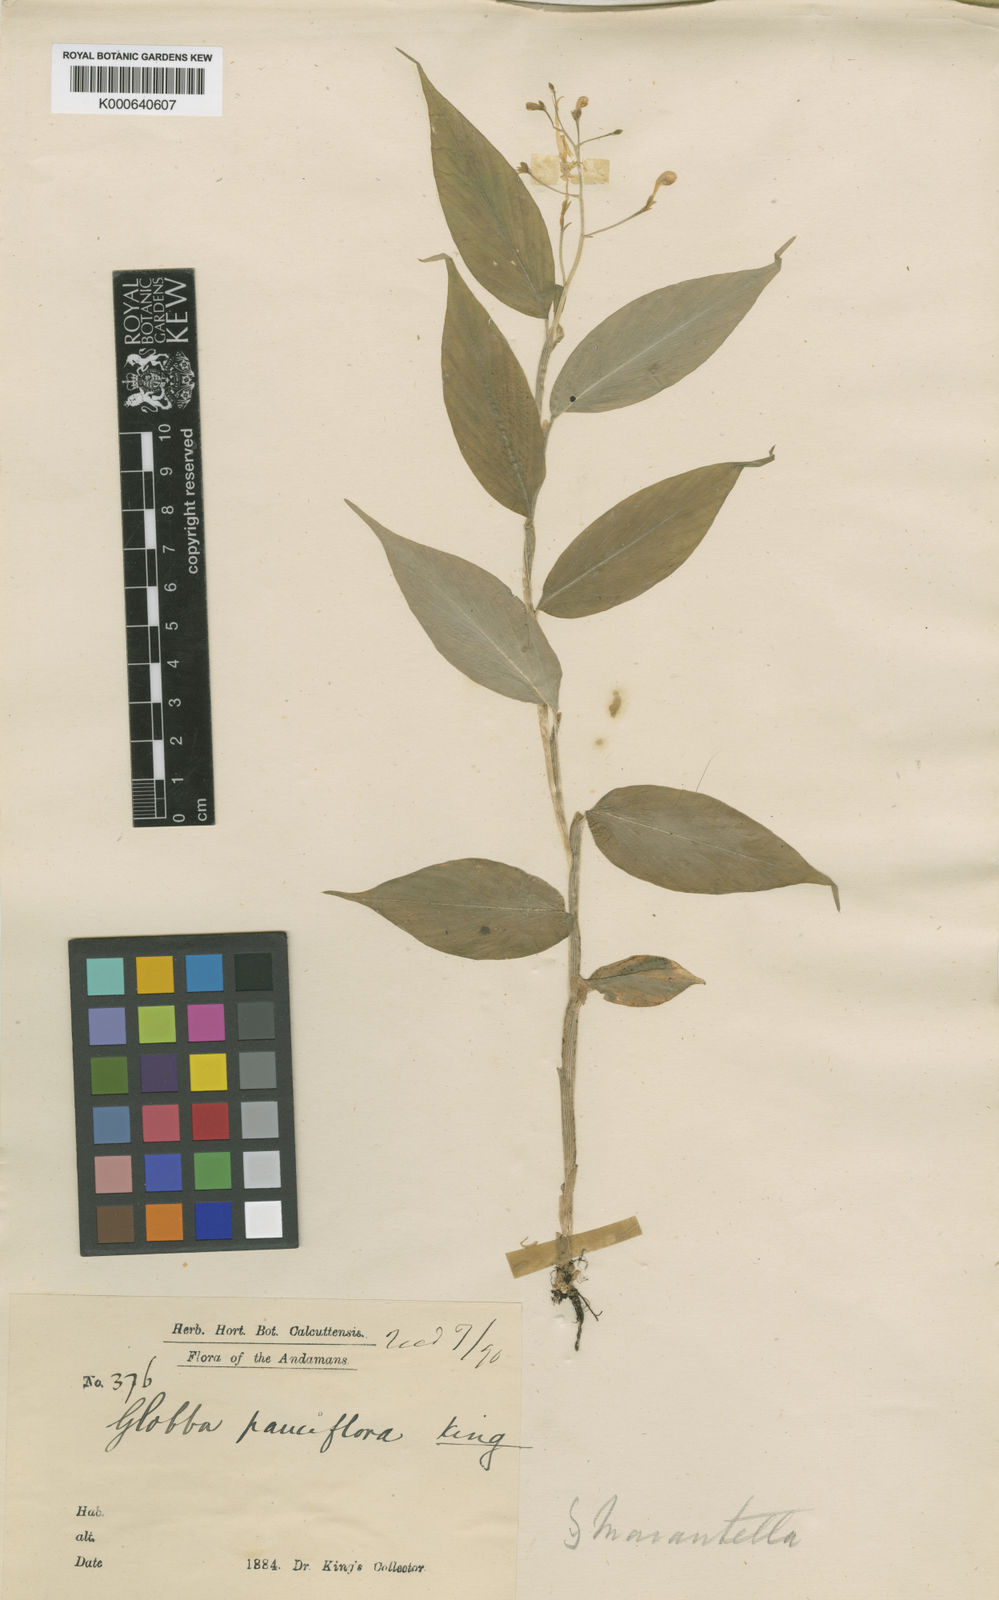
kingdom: Plantae
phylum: Tracheophyta
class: Liliopsida
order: Zingiberales
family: Zingiberaceae
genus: Globba
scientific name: Globba pauciflora
